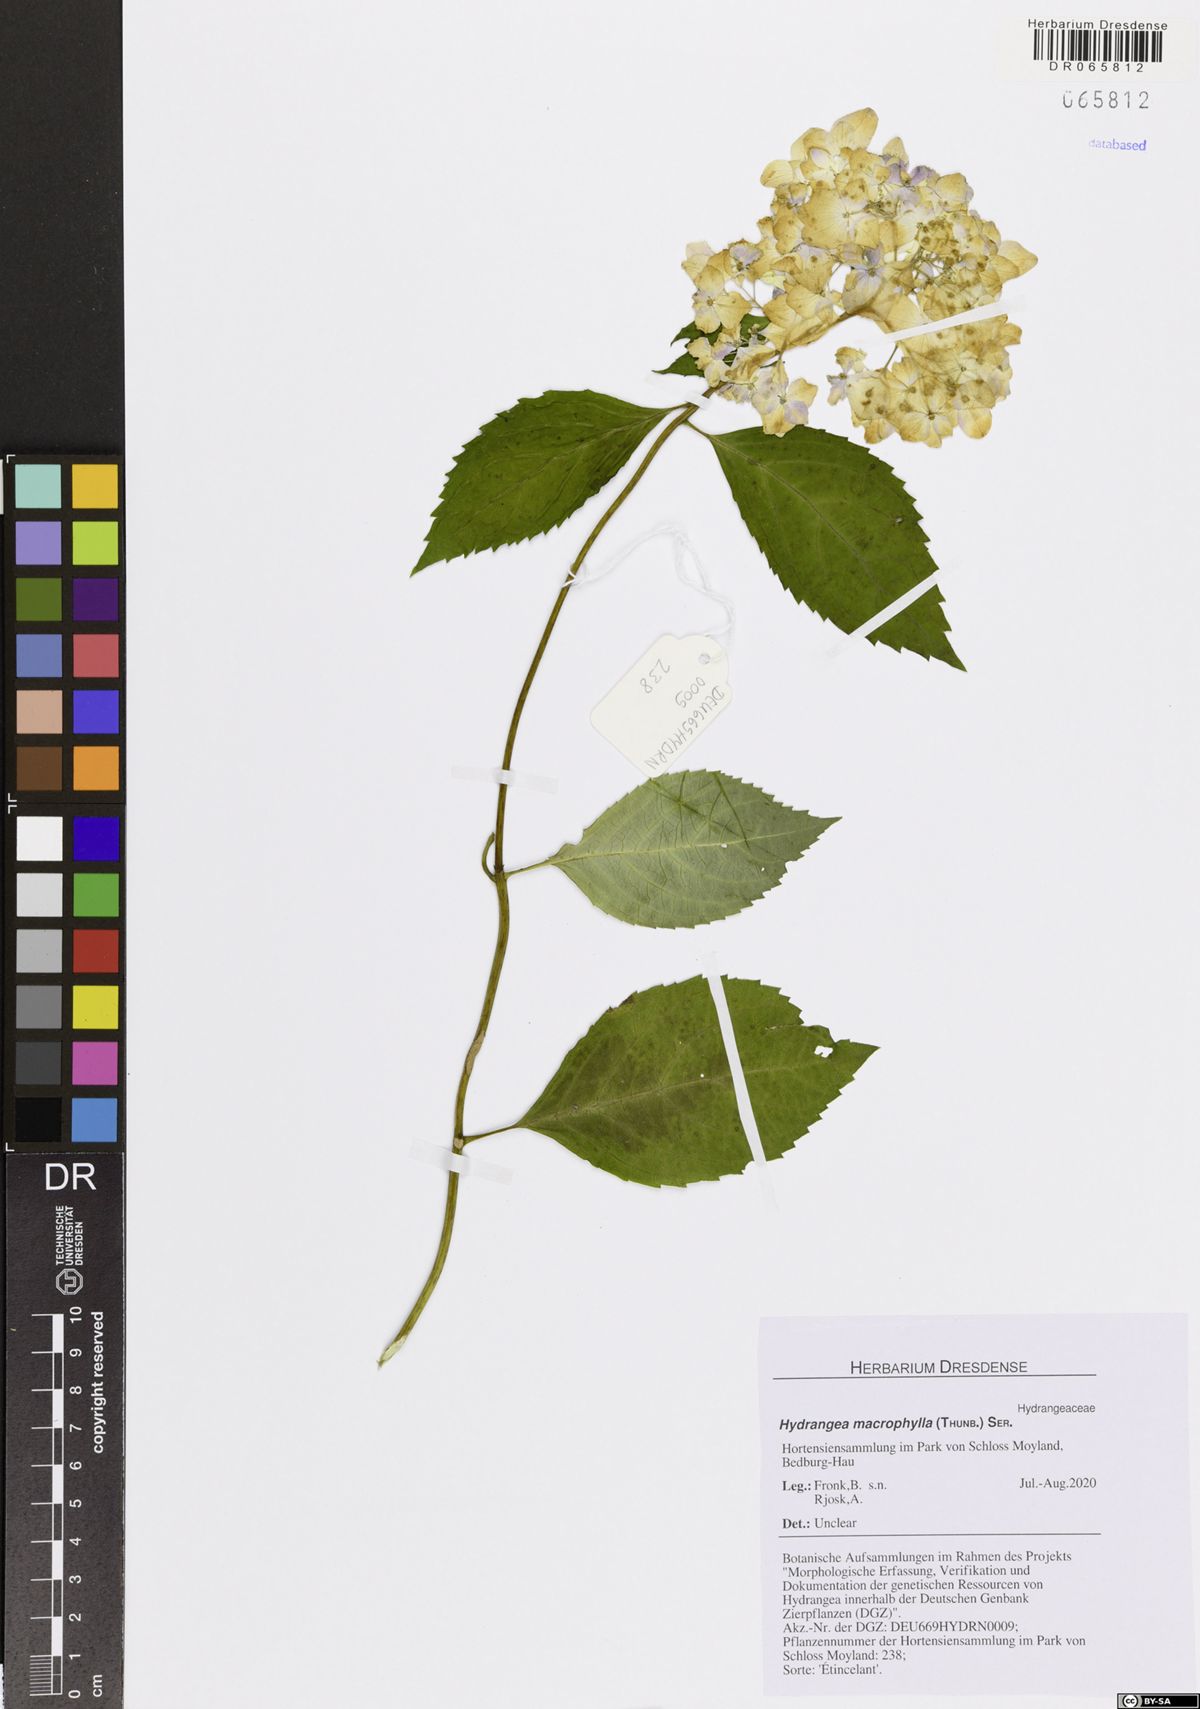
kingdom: Plantae
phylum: Tracheophyta
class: Magnoliopsida
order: Cornales
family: Hydrangeaceae
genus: Hydrangea
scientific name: Hydrangea macrophylla
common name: Hydrangea
